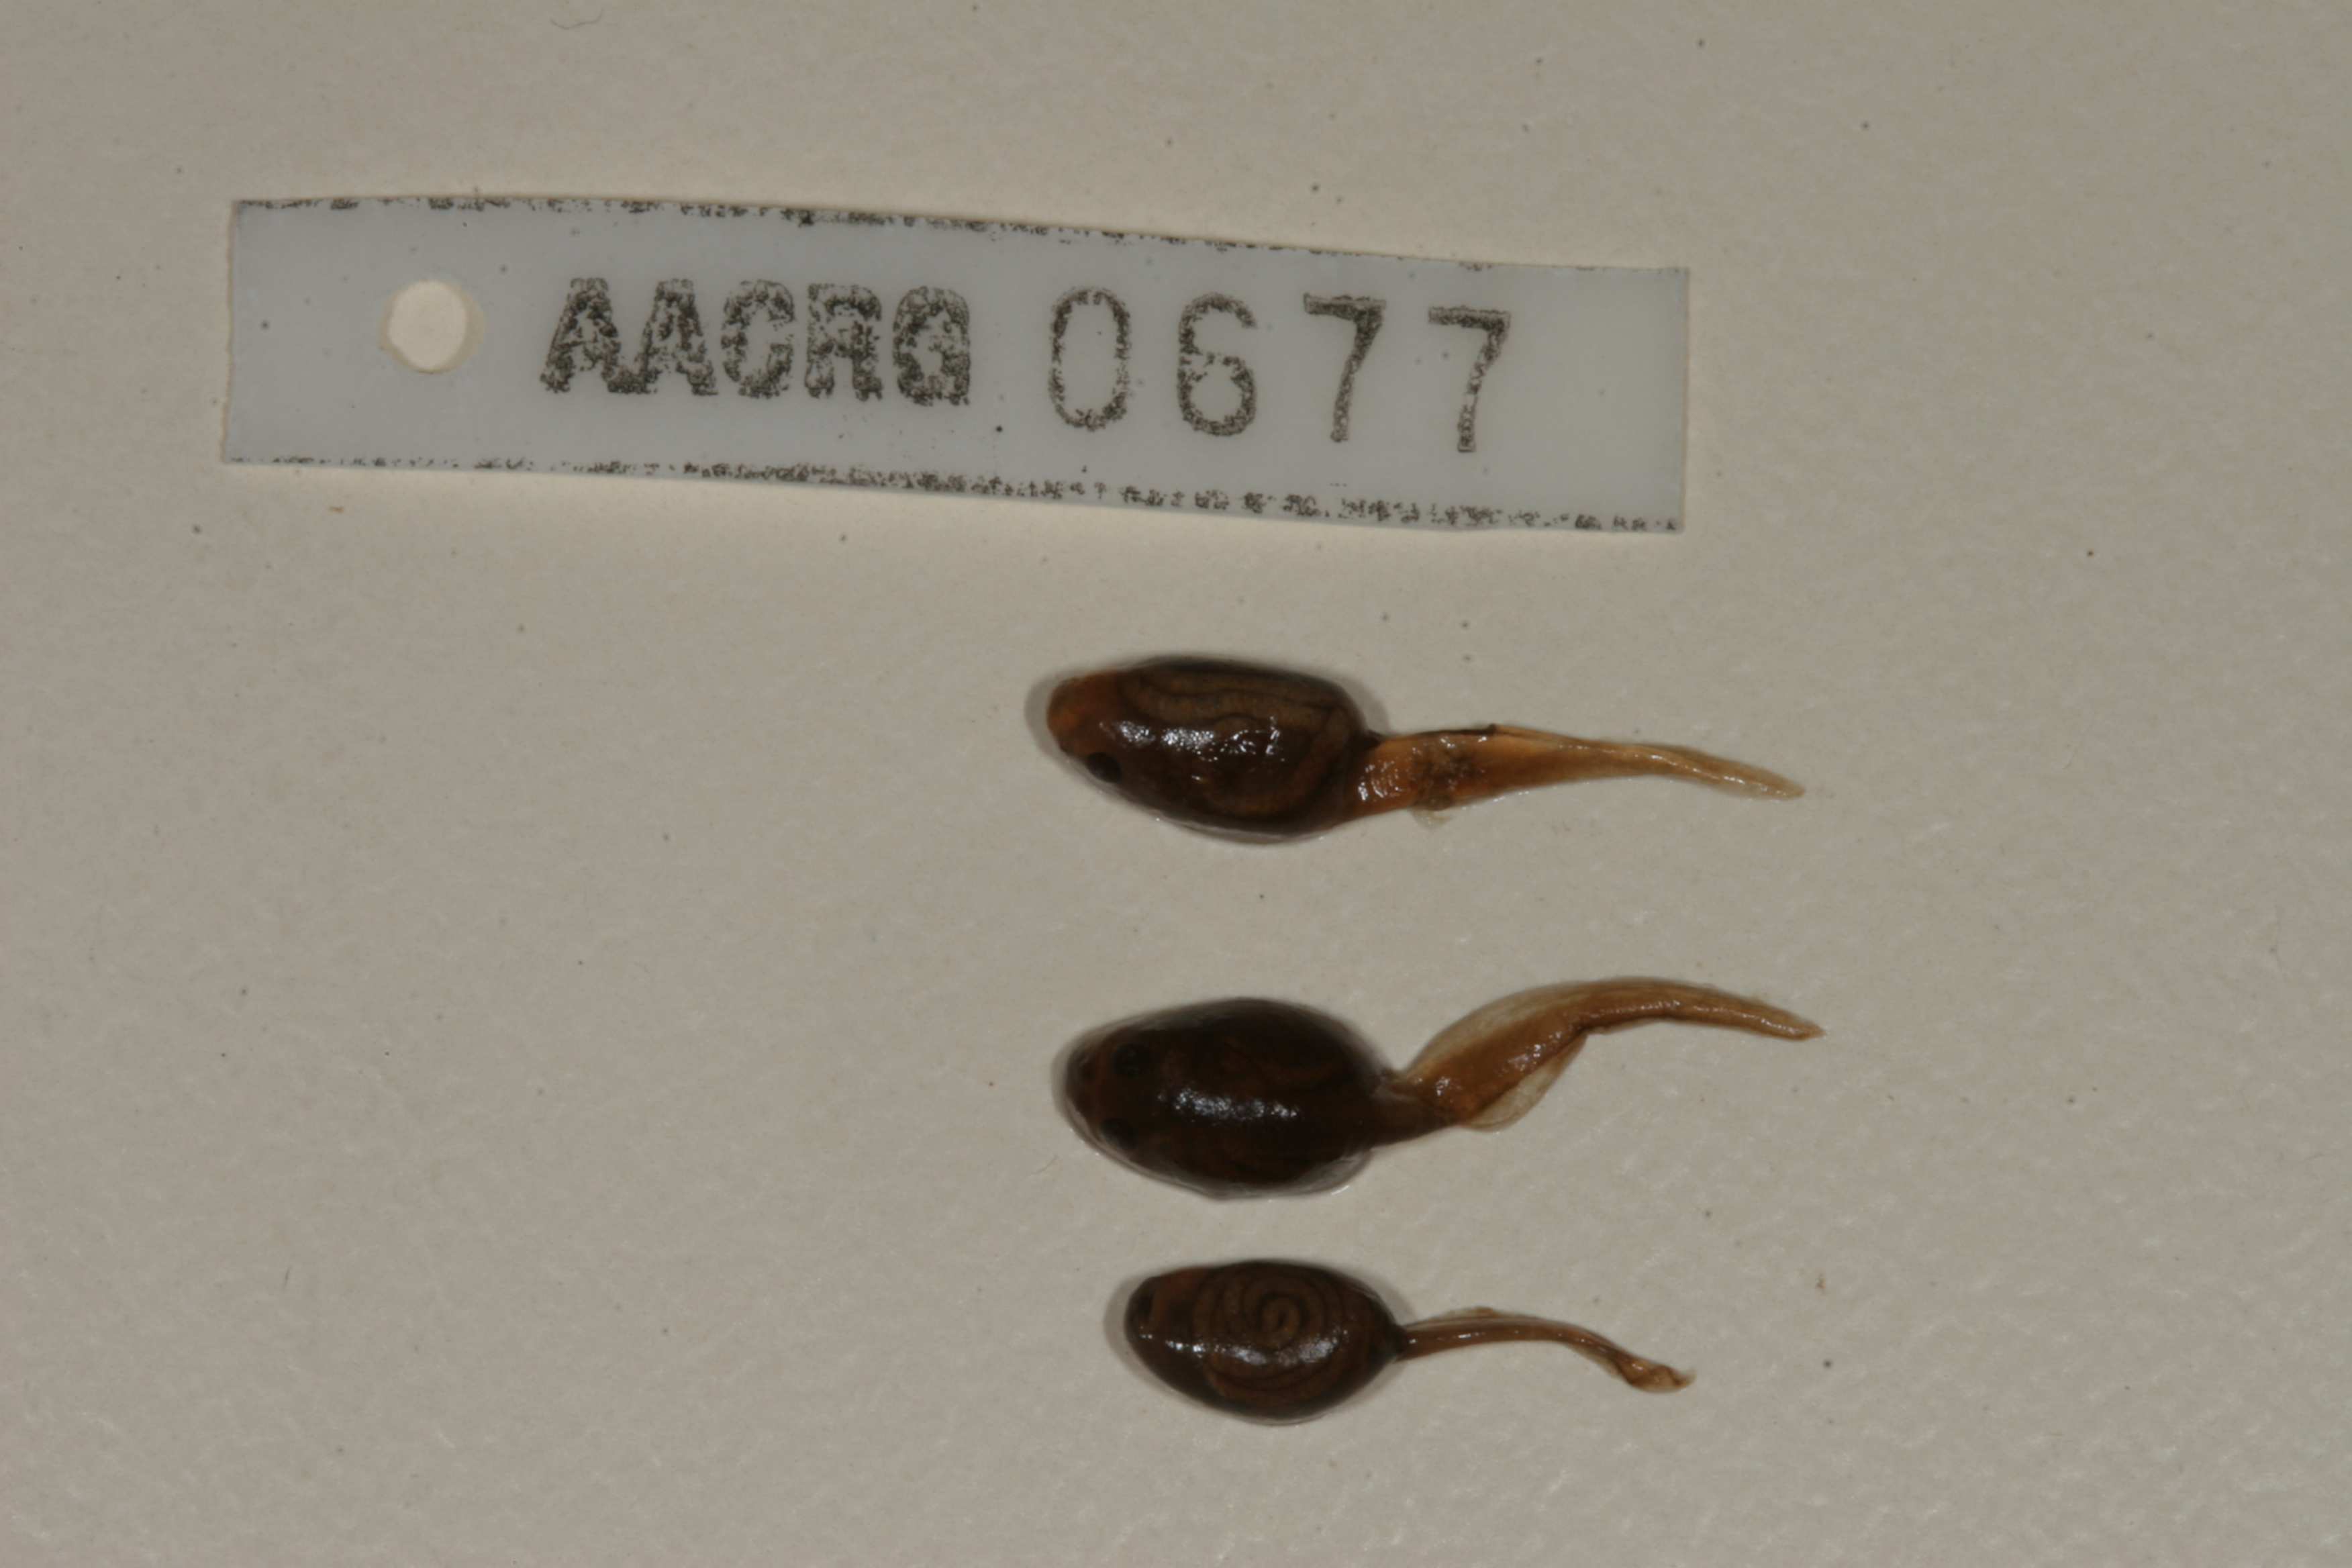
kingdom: Animalia
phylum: Chordata
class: Amphibia
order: Anura
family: Bufonidae
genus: Vandijkophrynus
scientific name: Vandijkophrynus angusticeps
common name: Sand toad
